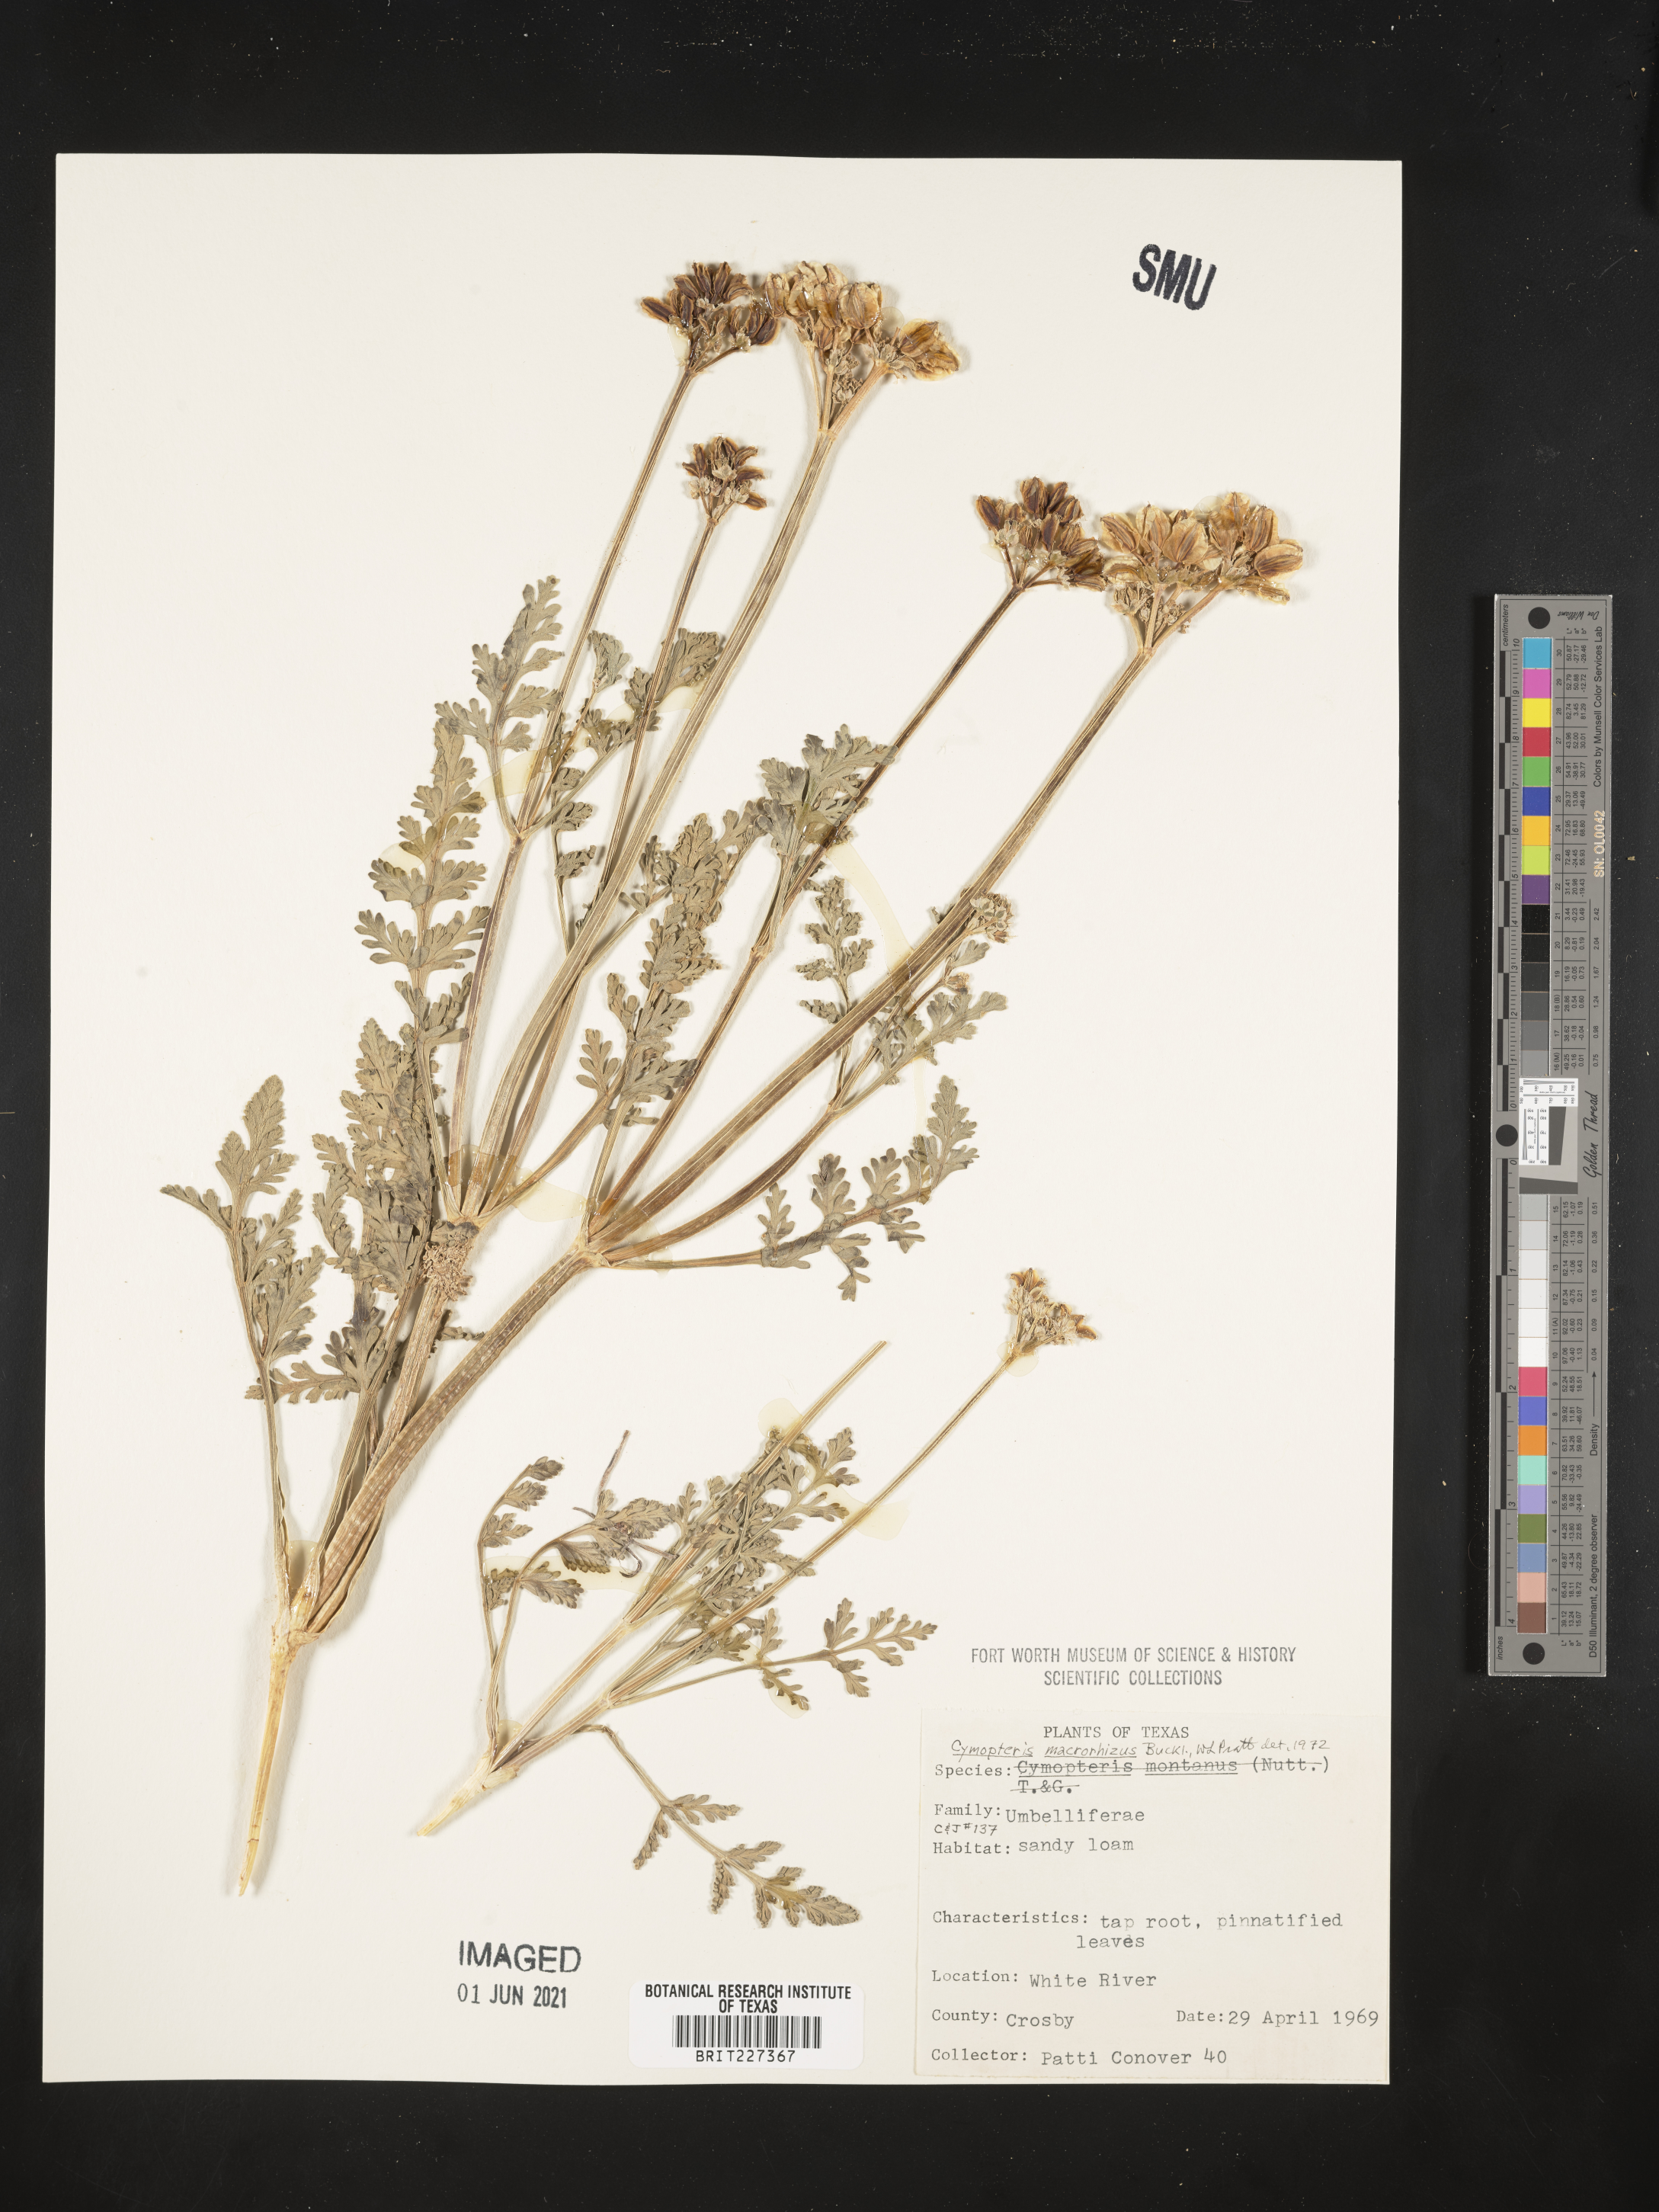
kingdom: Plantae
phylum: Tracheophyta
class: Magnoliopsida
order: Apiales
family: Apiaceae
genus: Vesper
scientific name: Vesper macrorhizus
